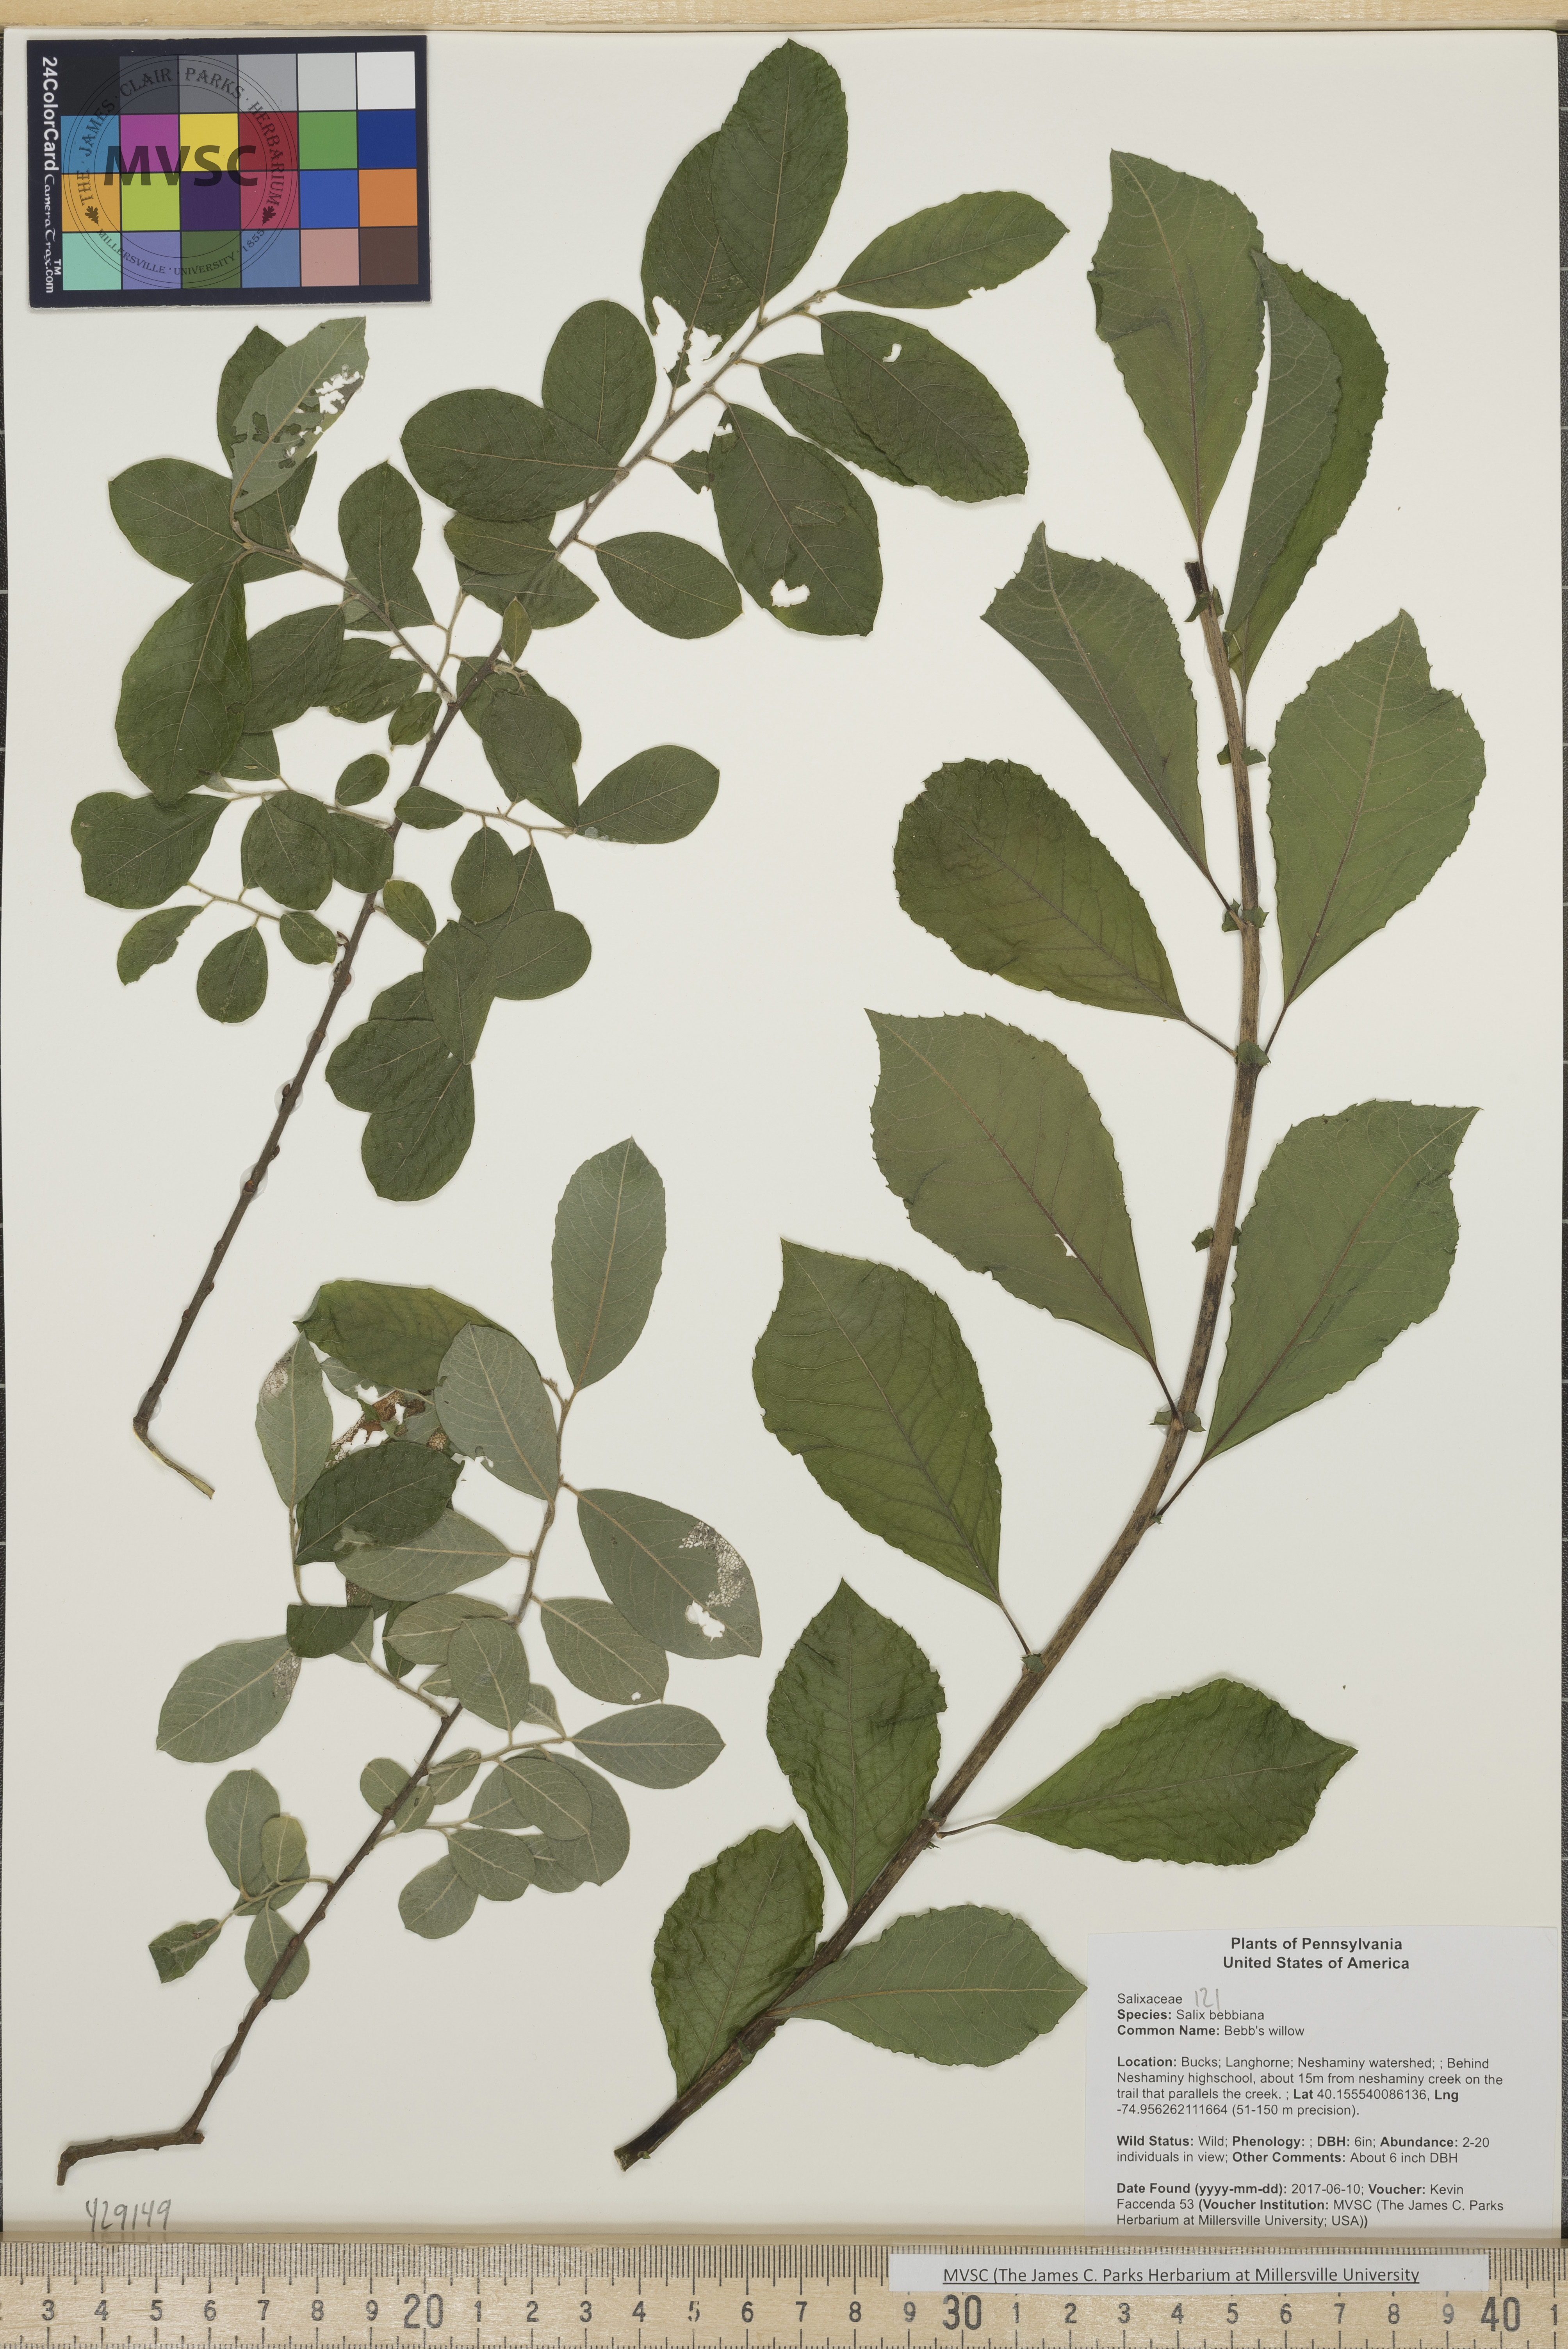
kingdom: Plantae
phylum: Tracheophyta
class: Magnoliopsida
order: Malpighiales
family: Salicaceae
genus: Salix
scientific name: Salix bebbiana
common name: Bebb's willow
